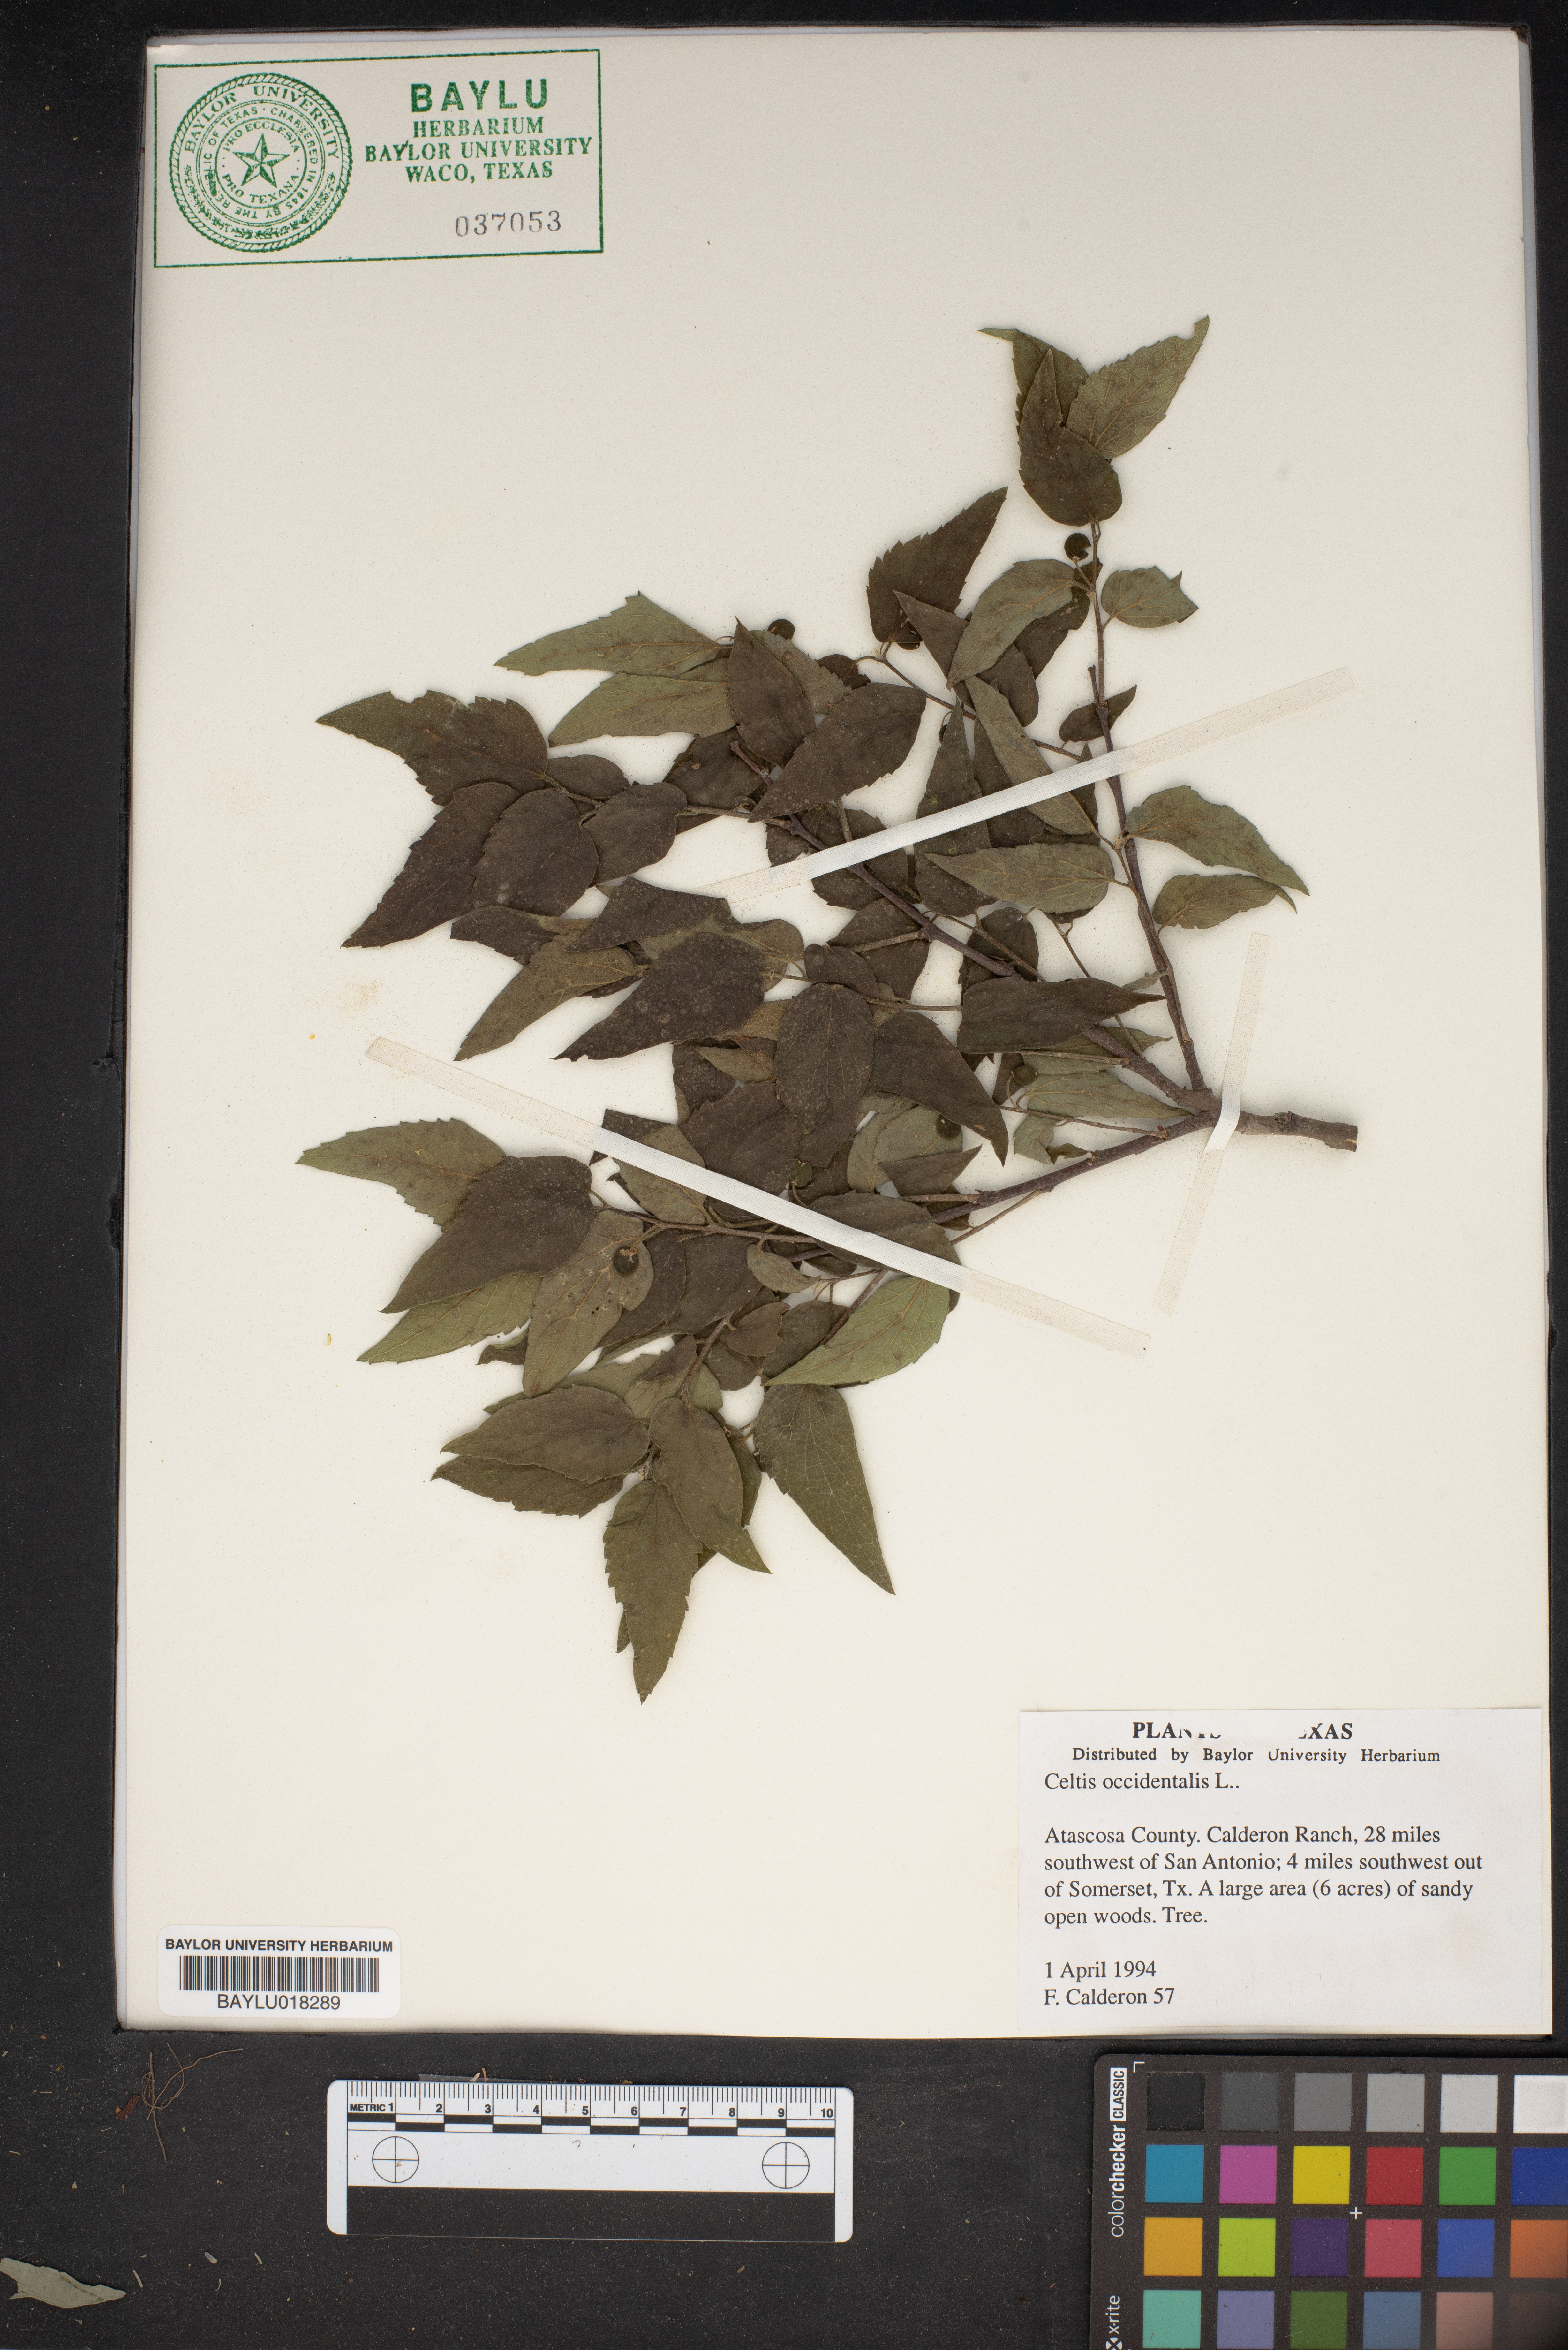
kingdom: Plantae
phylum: Tracheophyta
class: Magnoliopsida
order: Rosales
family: Cannabaceae
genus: Celtis
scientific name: Celtis occidentalis
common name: Common hackberry
